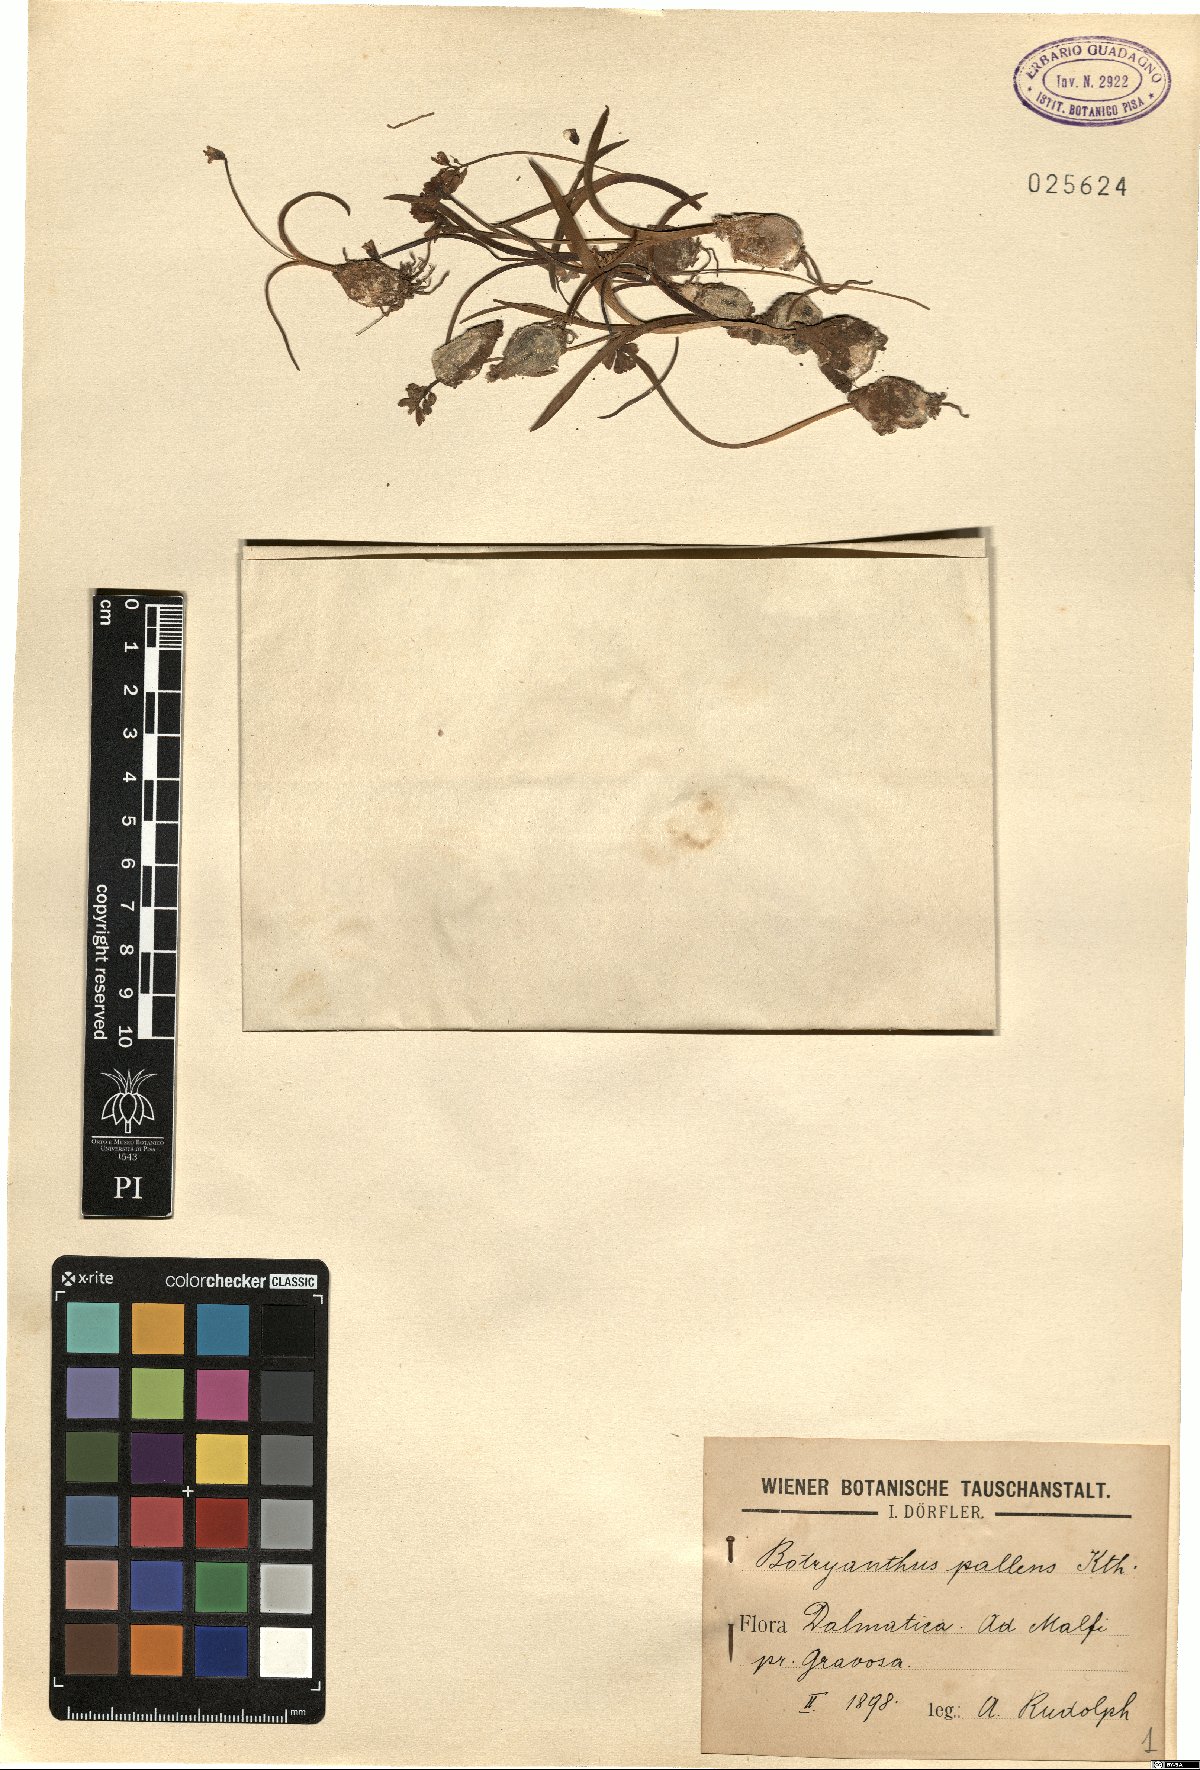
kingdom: Plantae
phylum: Tracheophyta
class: Liliopsida
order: Asparagales
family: Asparagaceae
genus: Muscari
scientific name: Muscari pallens
